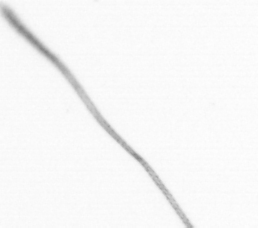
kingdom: Chromista
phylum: Ochrophyta
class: Bacillariophyceae
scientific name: Bacillariophyceae
